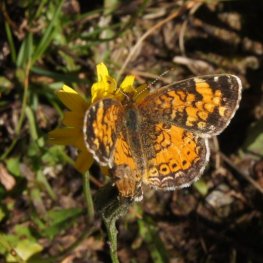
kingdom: Animalia
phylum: Arthropoda
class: Insecta
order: Lepidoptera
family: Nymphalidae
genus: Phyciodes
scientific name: Phyciodes tharos
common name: Northern Crescent
